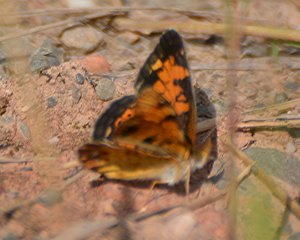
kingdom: Animalia
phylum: Arthropoda
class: Insecta
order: Lepidoptera
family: Nymphalidae
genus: Phyciodes
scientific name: Phyciodes tharos
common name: Northern Crescent
